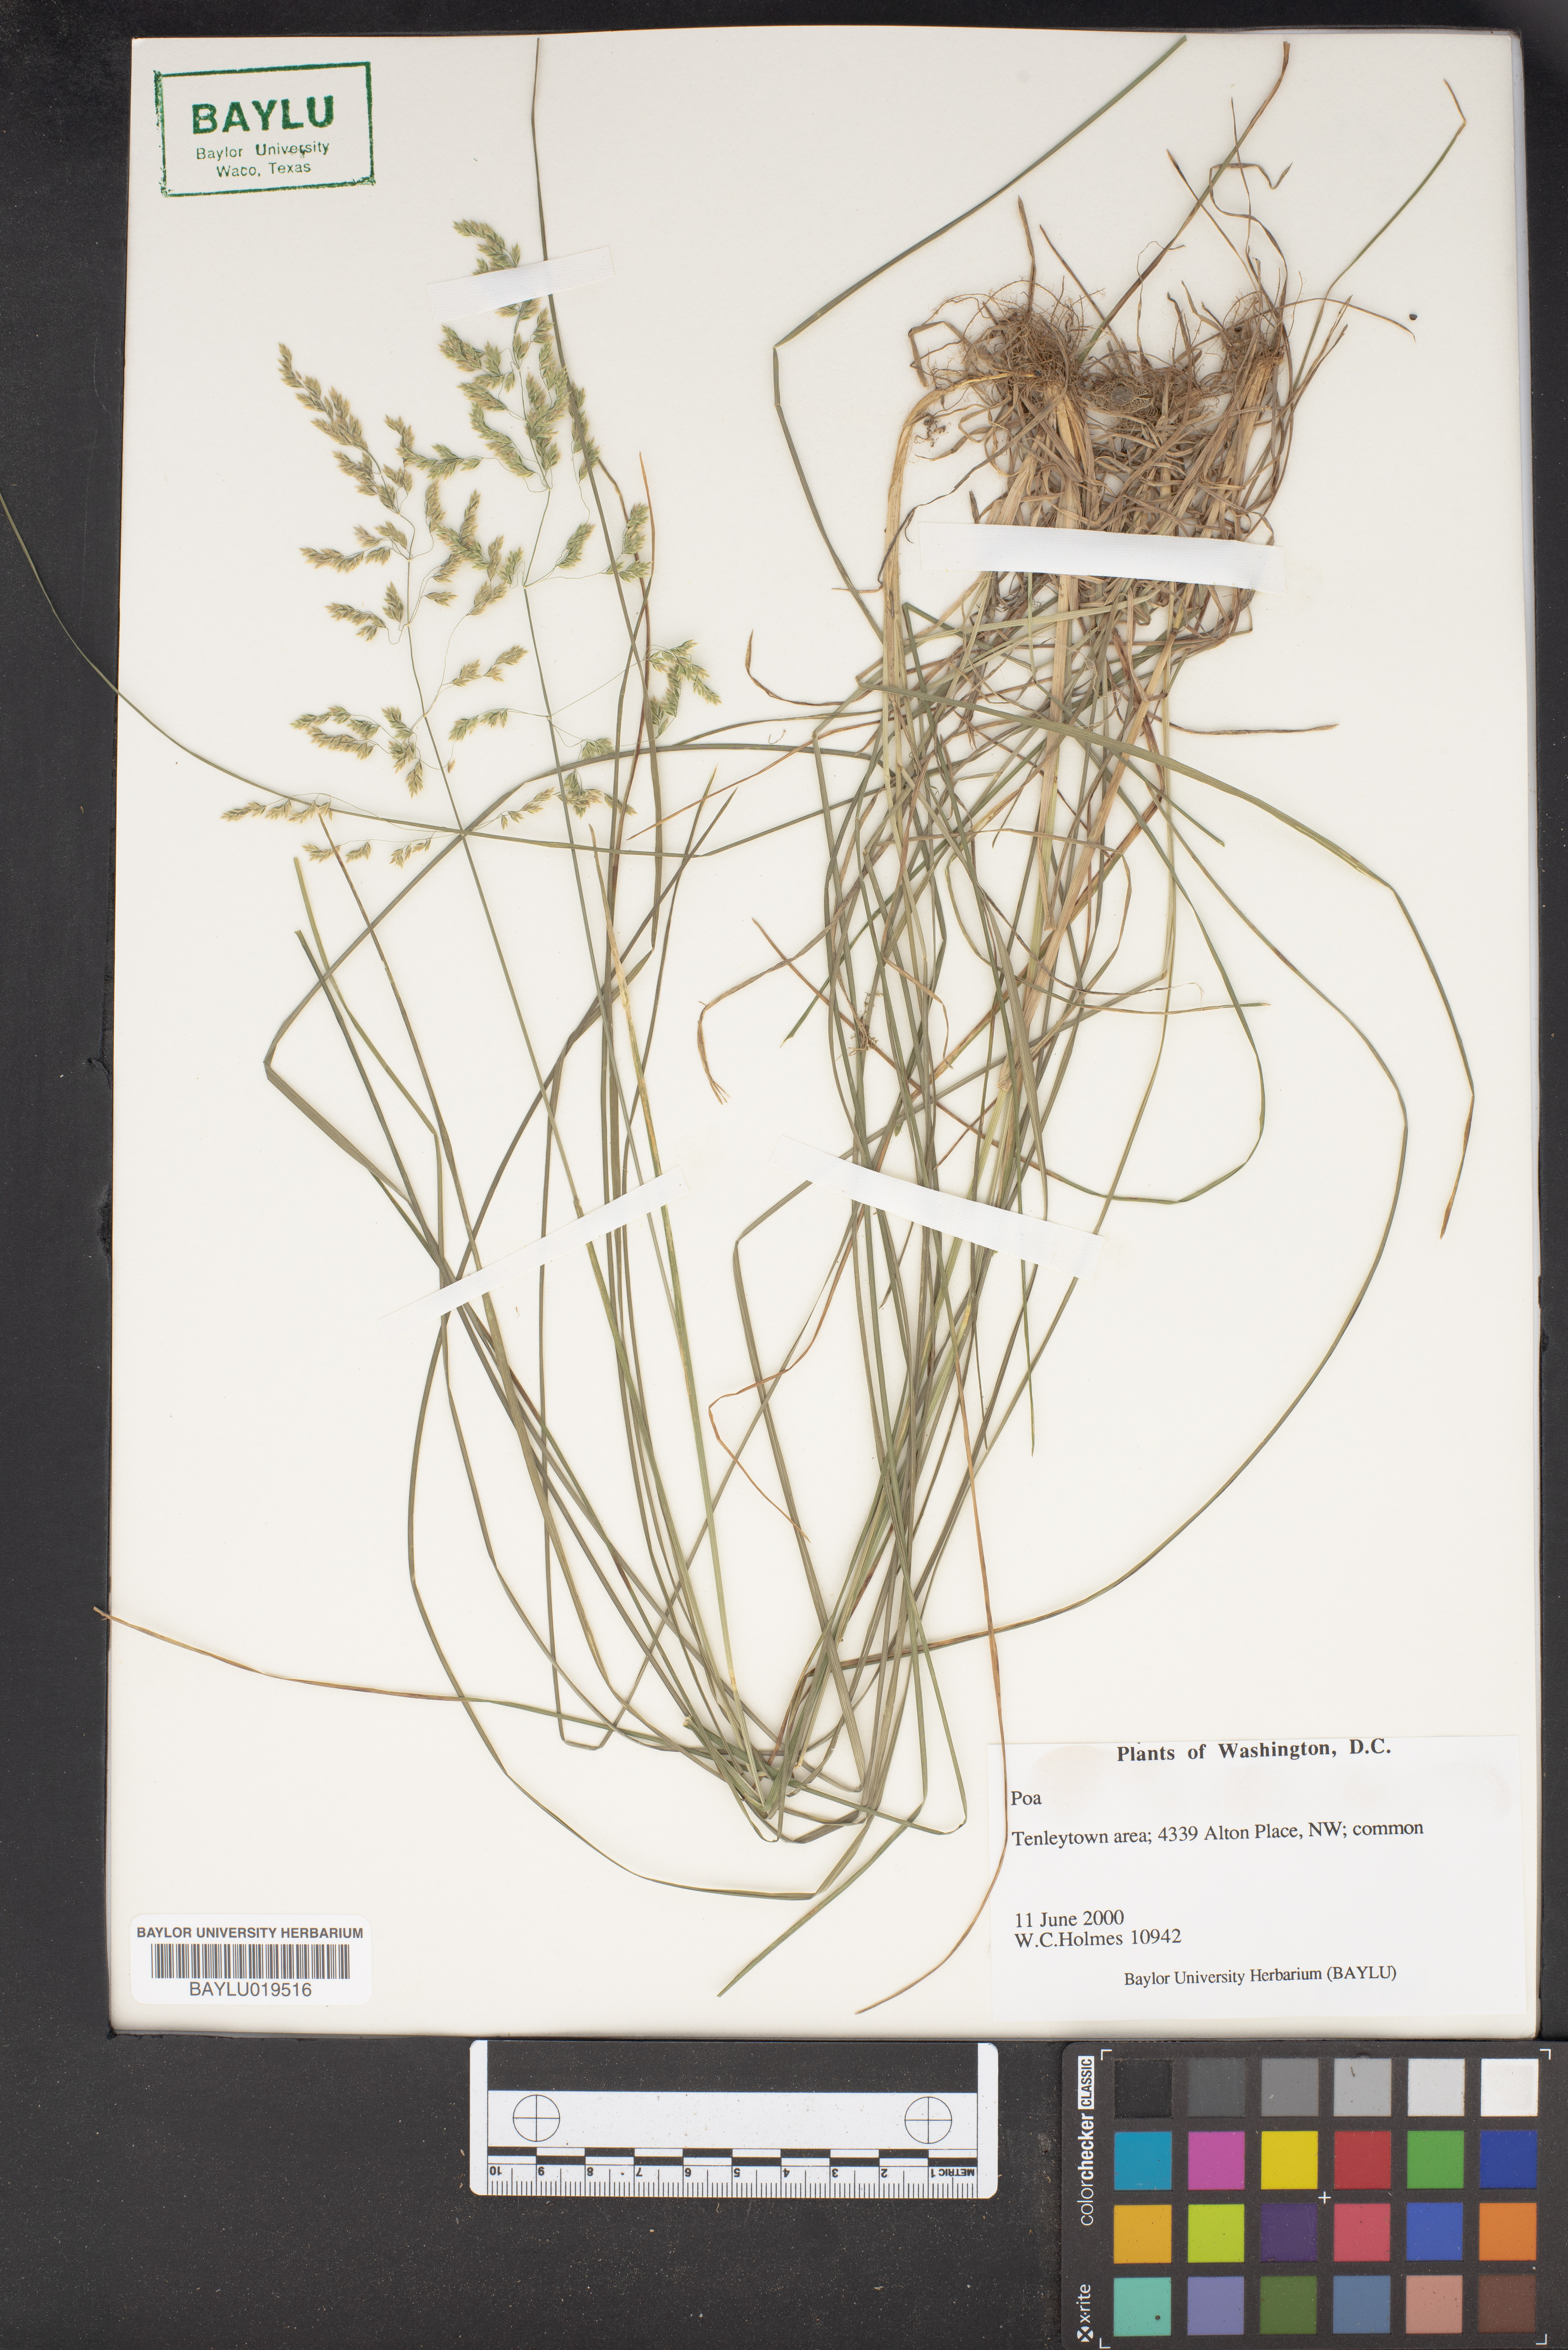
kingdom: Plantae
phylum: Tracheophyta
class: Liliopsida
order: Poales
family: Poaceae
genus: Poa
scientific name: Poa
